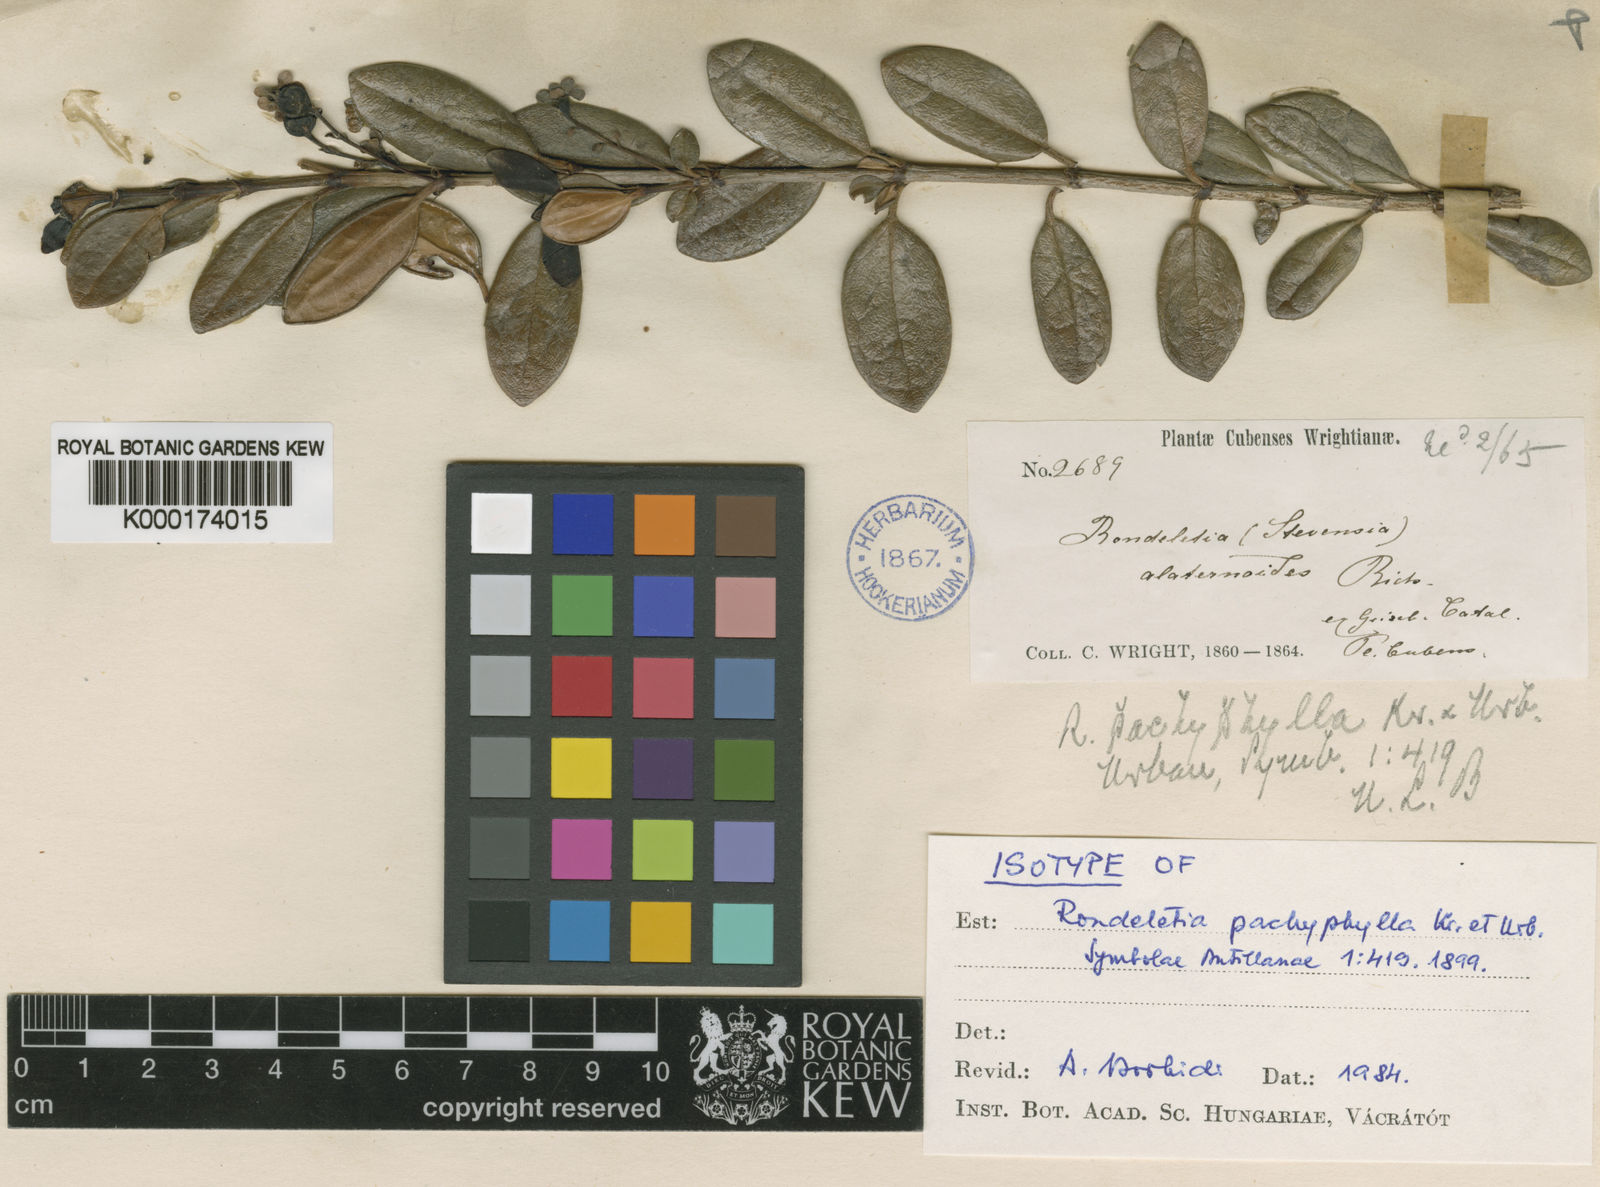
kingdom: Plantae
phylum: Tracheophyta
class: Magnoliopsida
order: Gentianales
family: Rubiaceae
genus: Rondeletia
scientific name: Rondeletia pachyphylla
